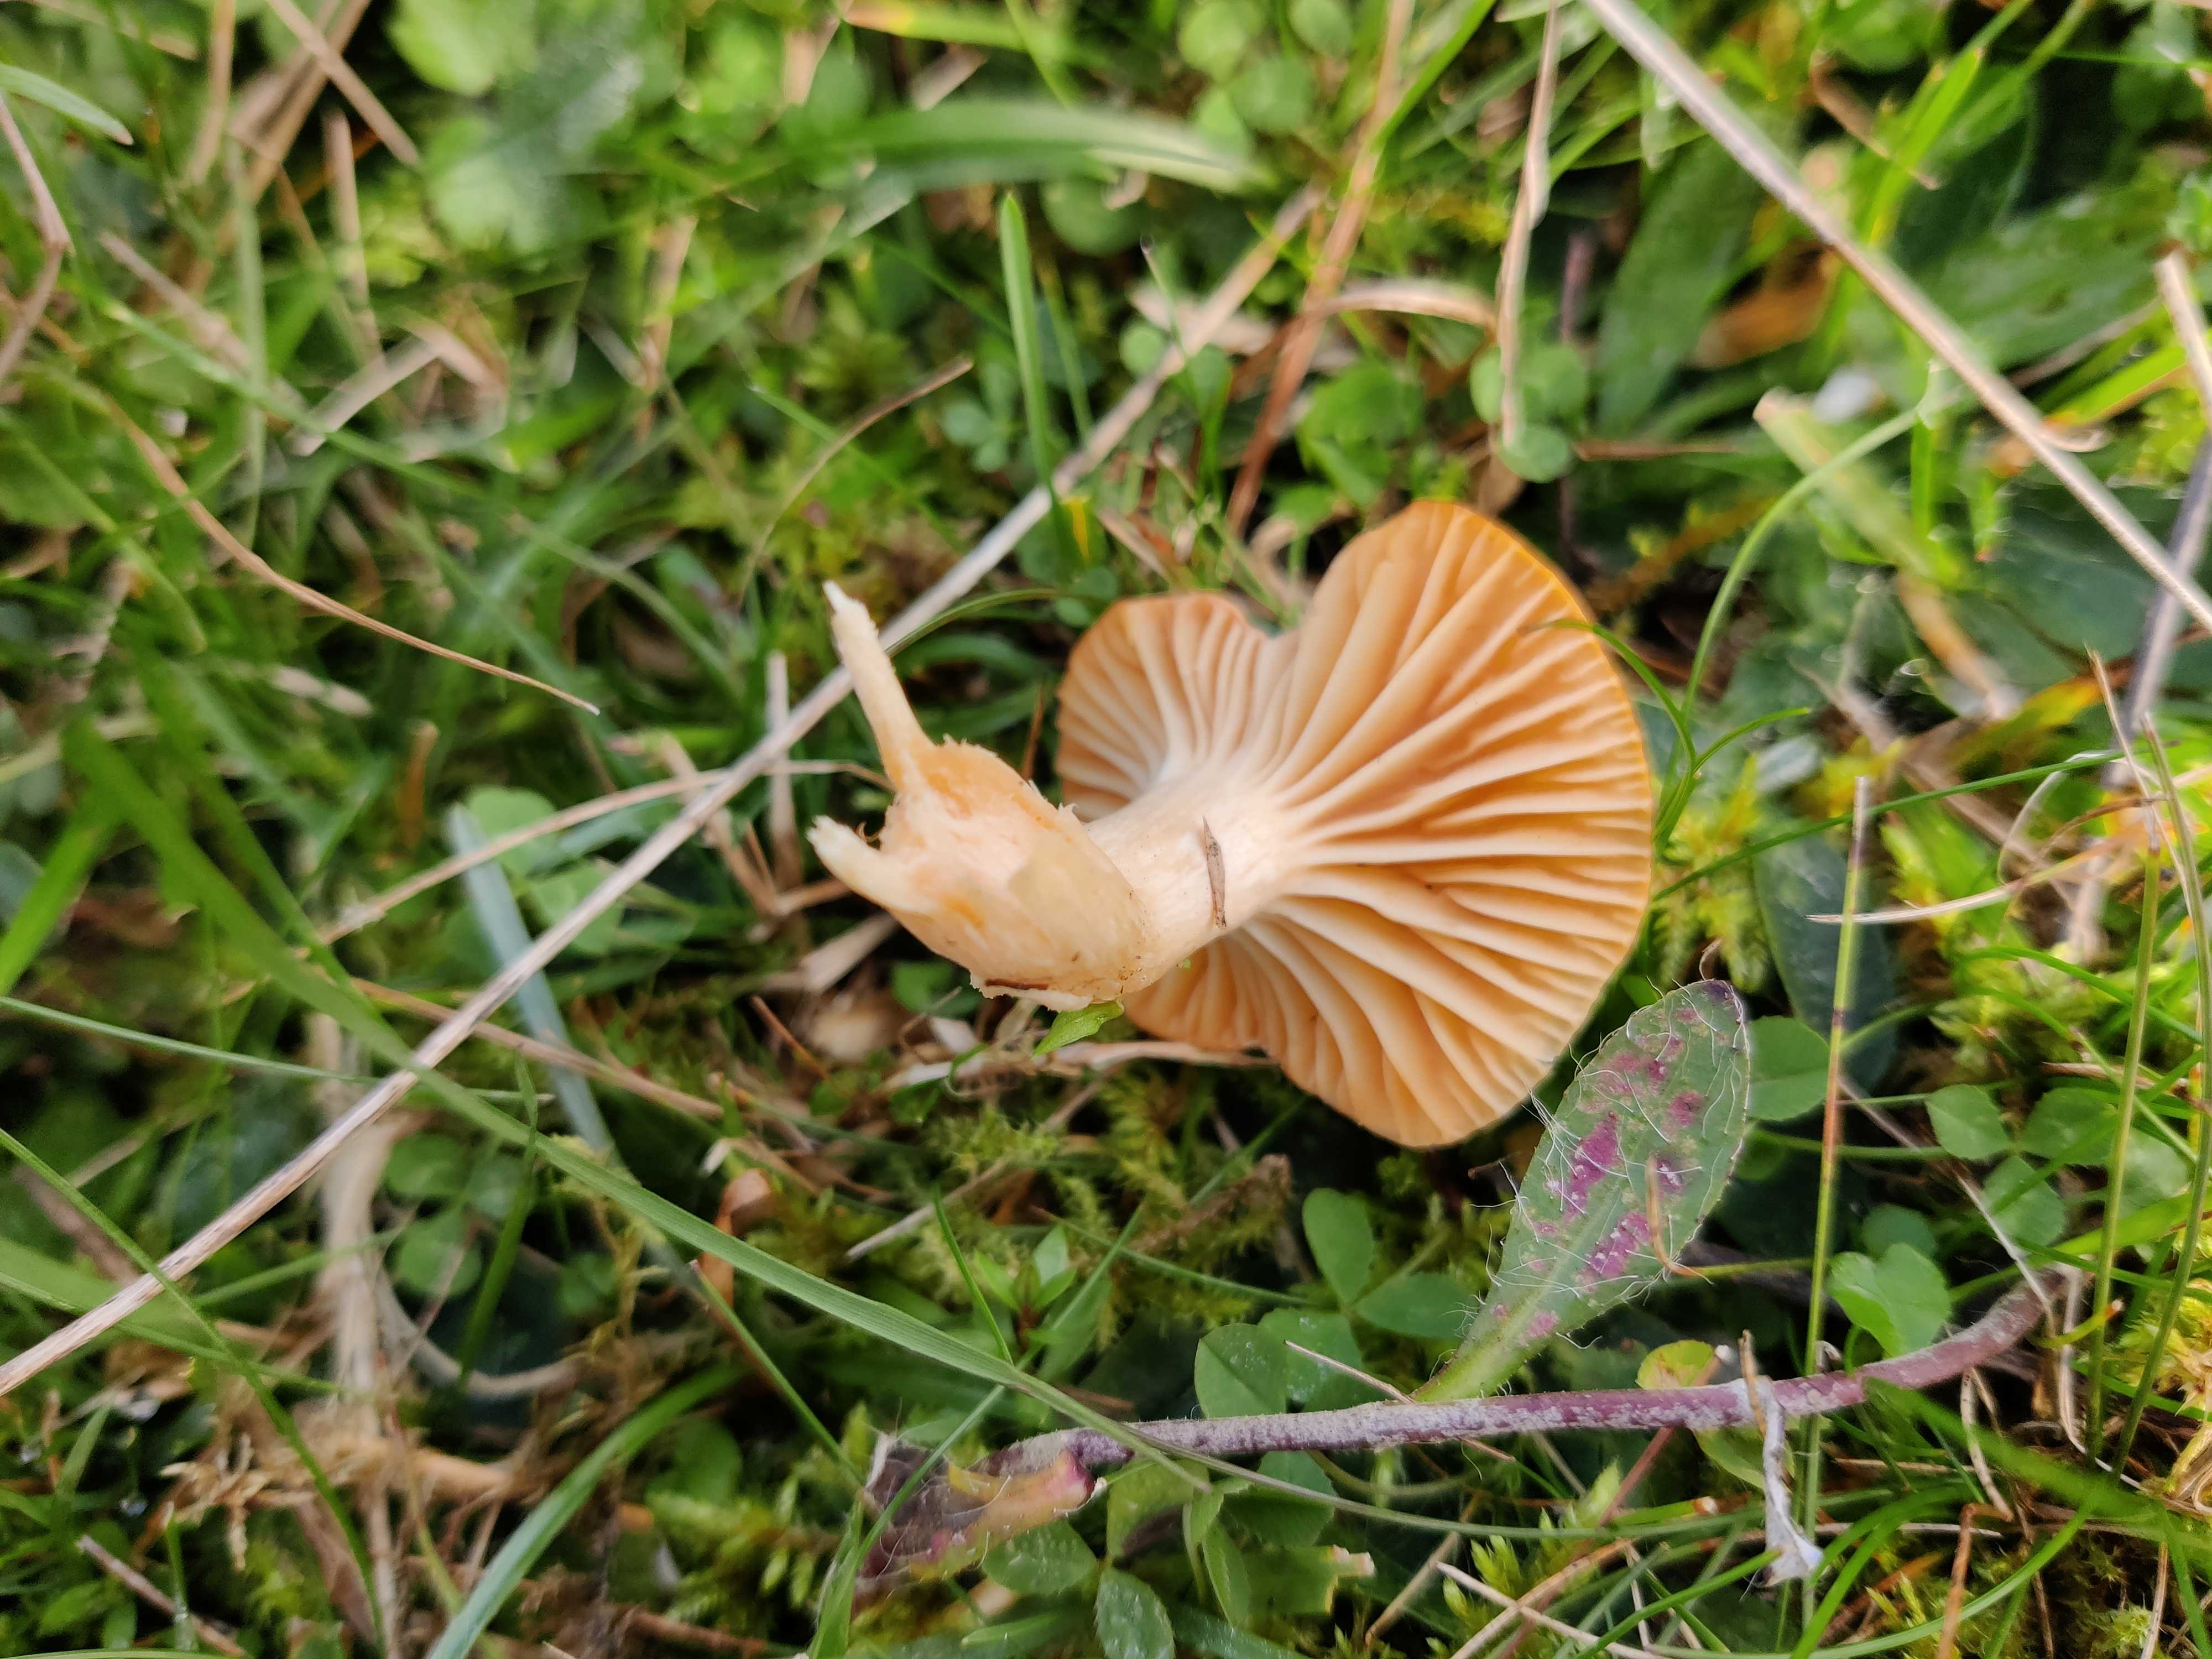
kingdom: Fungi
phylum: Basidiomycota
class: Agaricomycetes
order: Agaricales
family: Hygrophoraceae
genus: Cuphophyllus
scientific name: Cuphophyllus pratensis
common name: eng-vokshat
